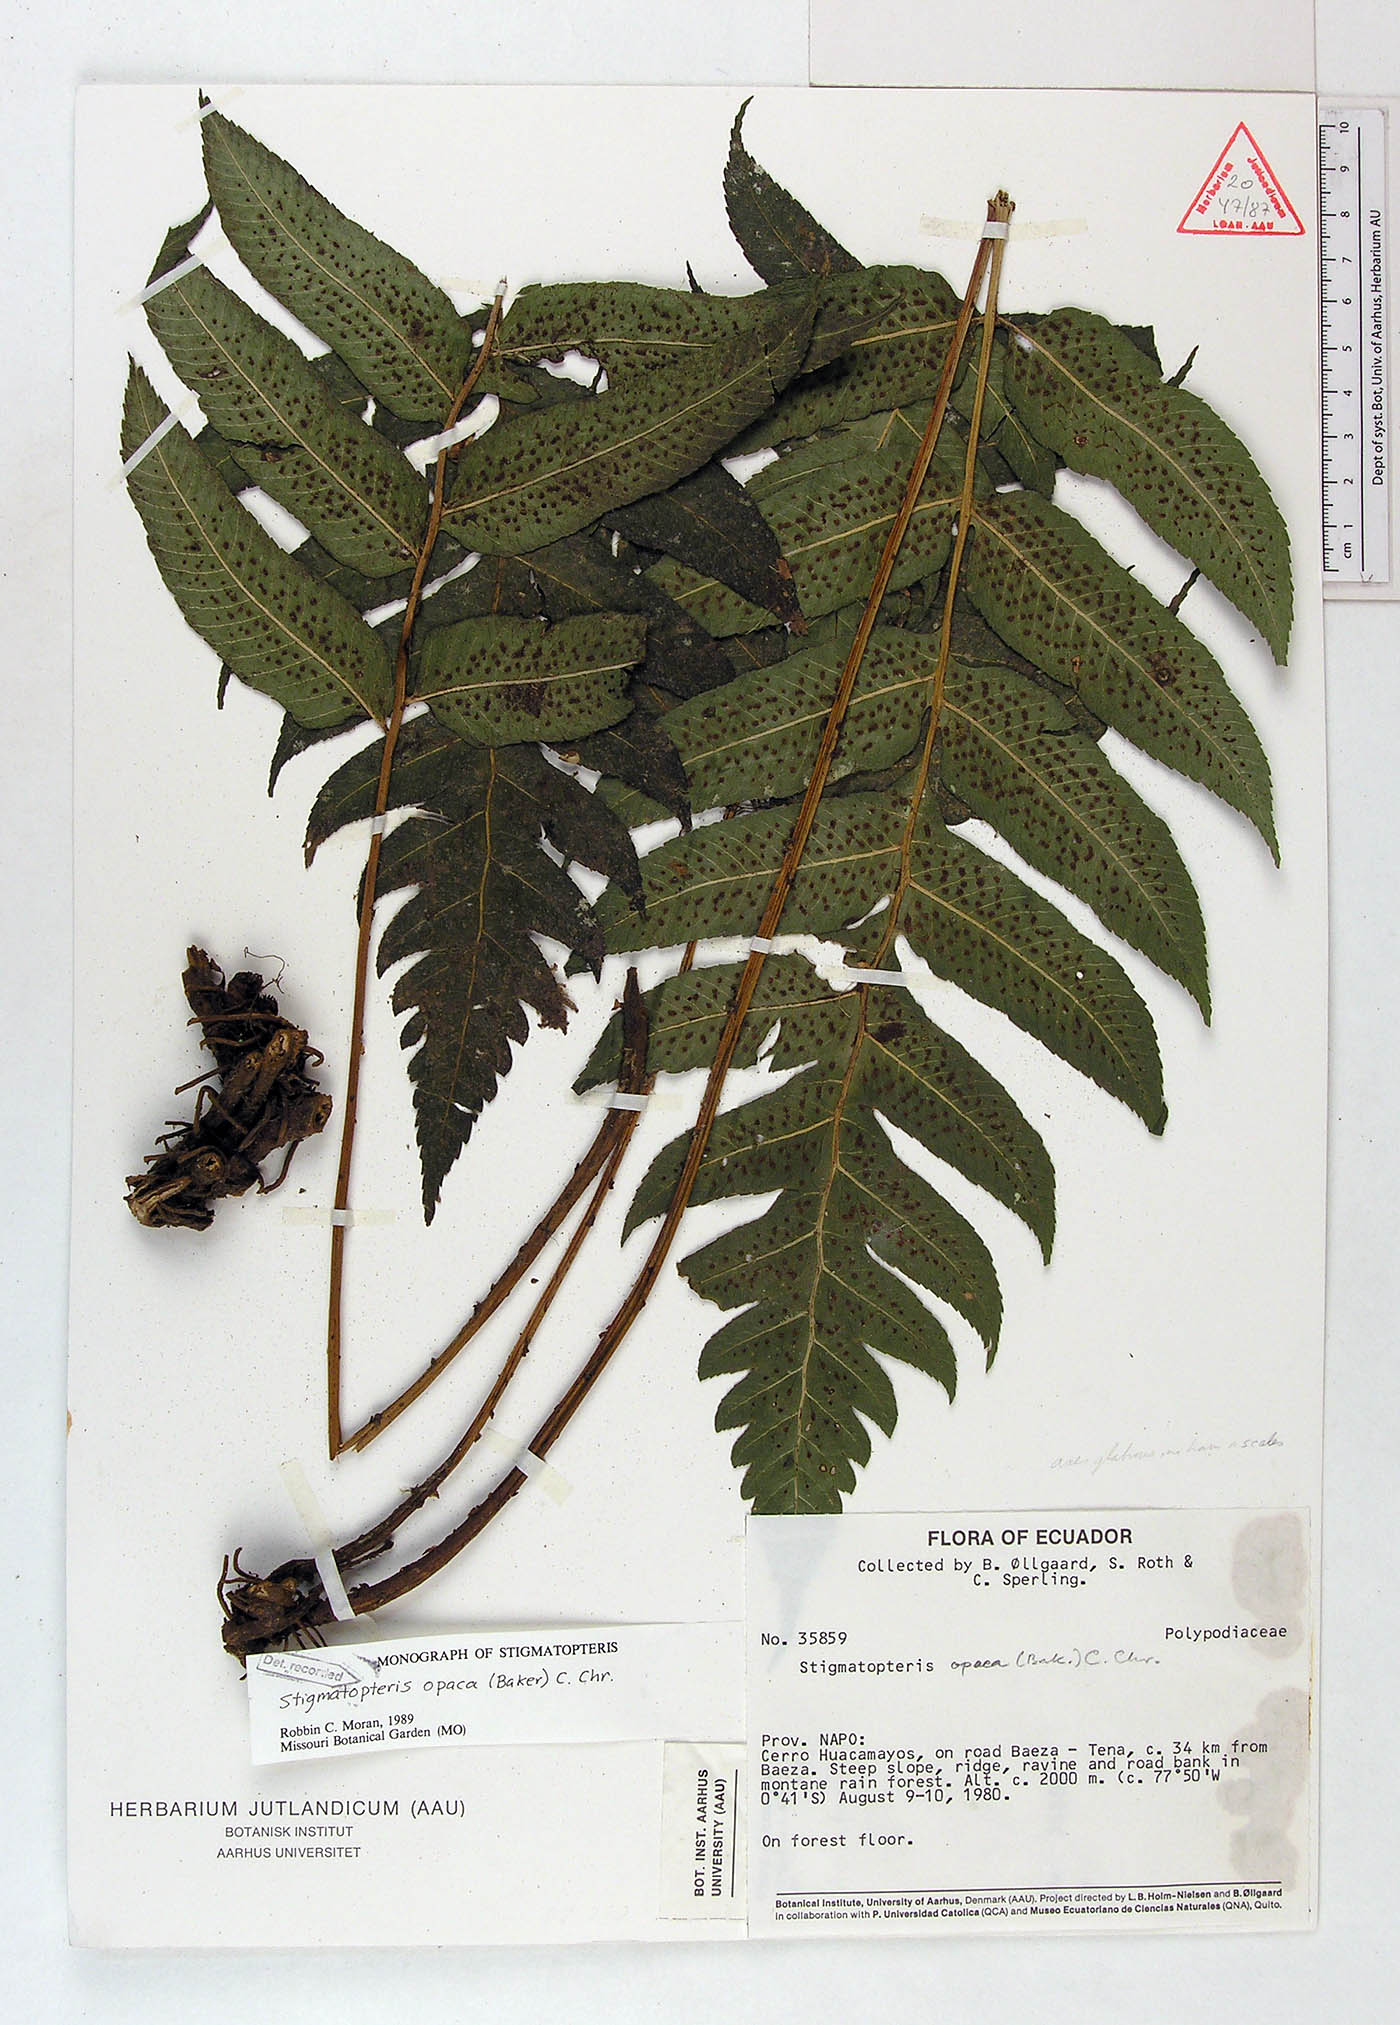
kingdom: Plantae
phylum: Tracheophyta
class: Polypodiopsida
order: Polypodiales
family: Dryopteridaceae
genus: Stigmatopteris
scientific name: Stigmatopteris opaca
